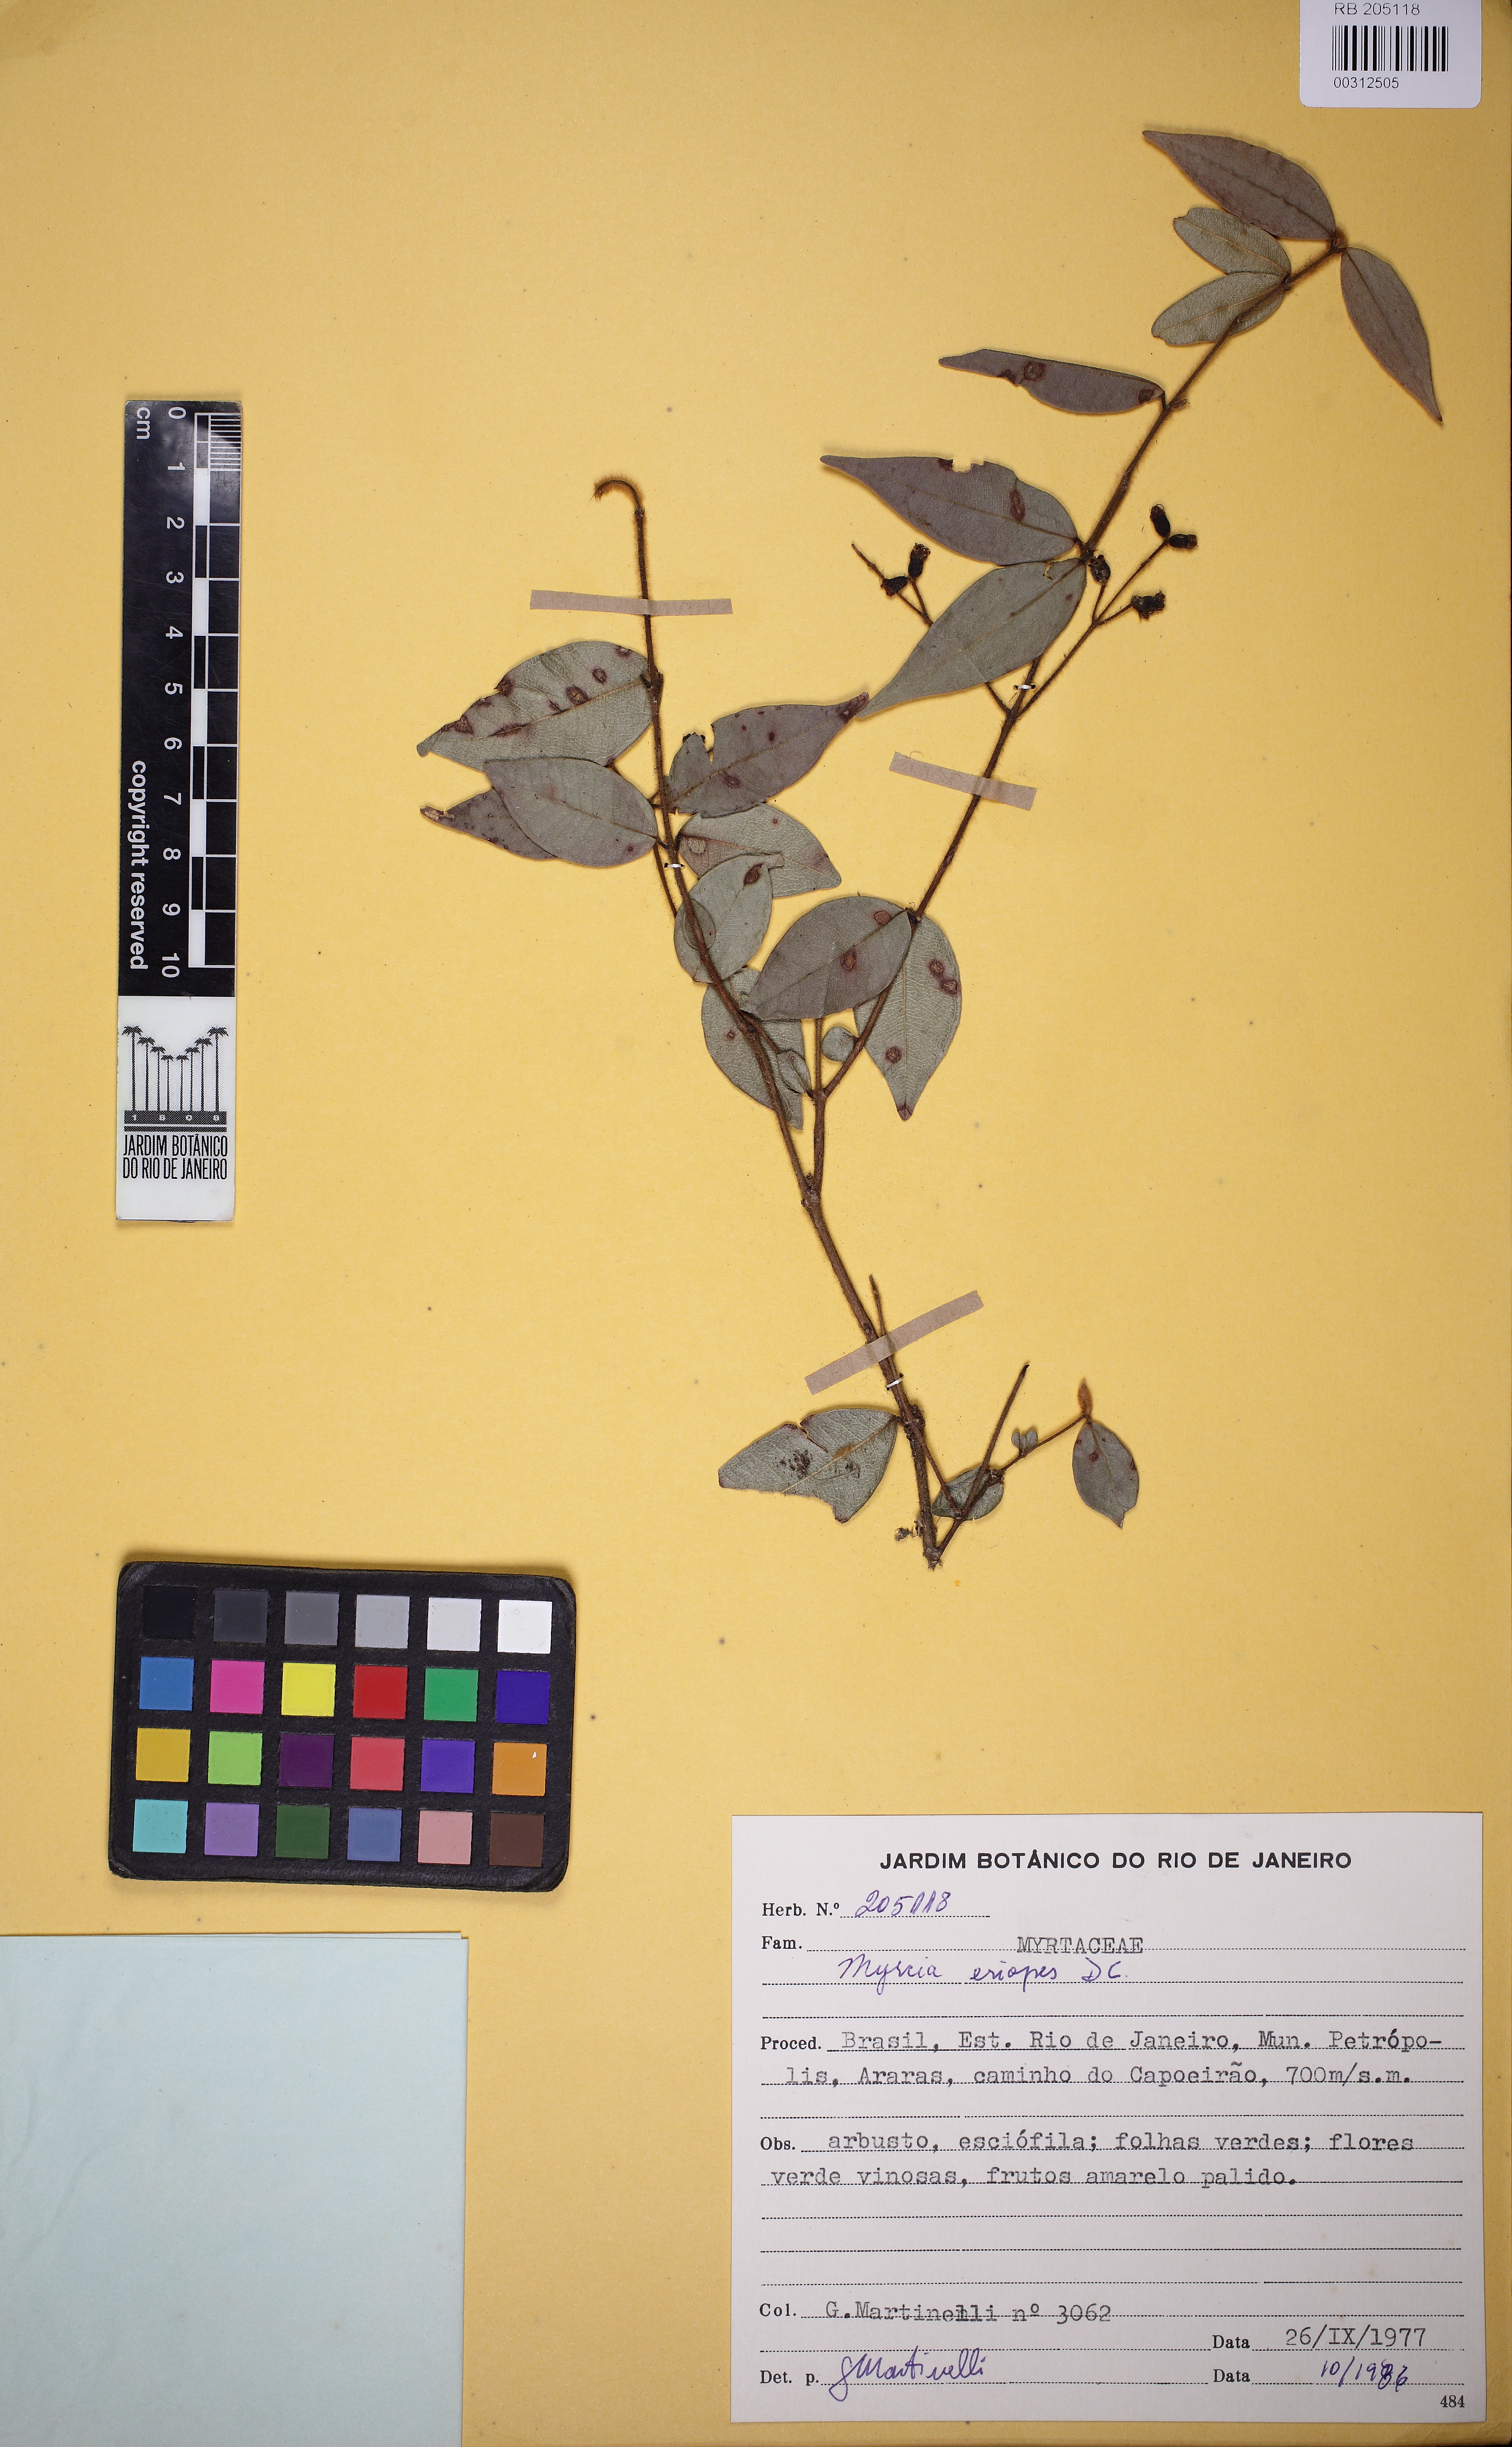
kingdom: Plantae
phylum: Tracheophyta
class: Magnoliopsida
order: Myrtales
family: Myrtaceae
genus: Myrcia
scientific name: Myrcia eriopus
